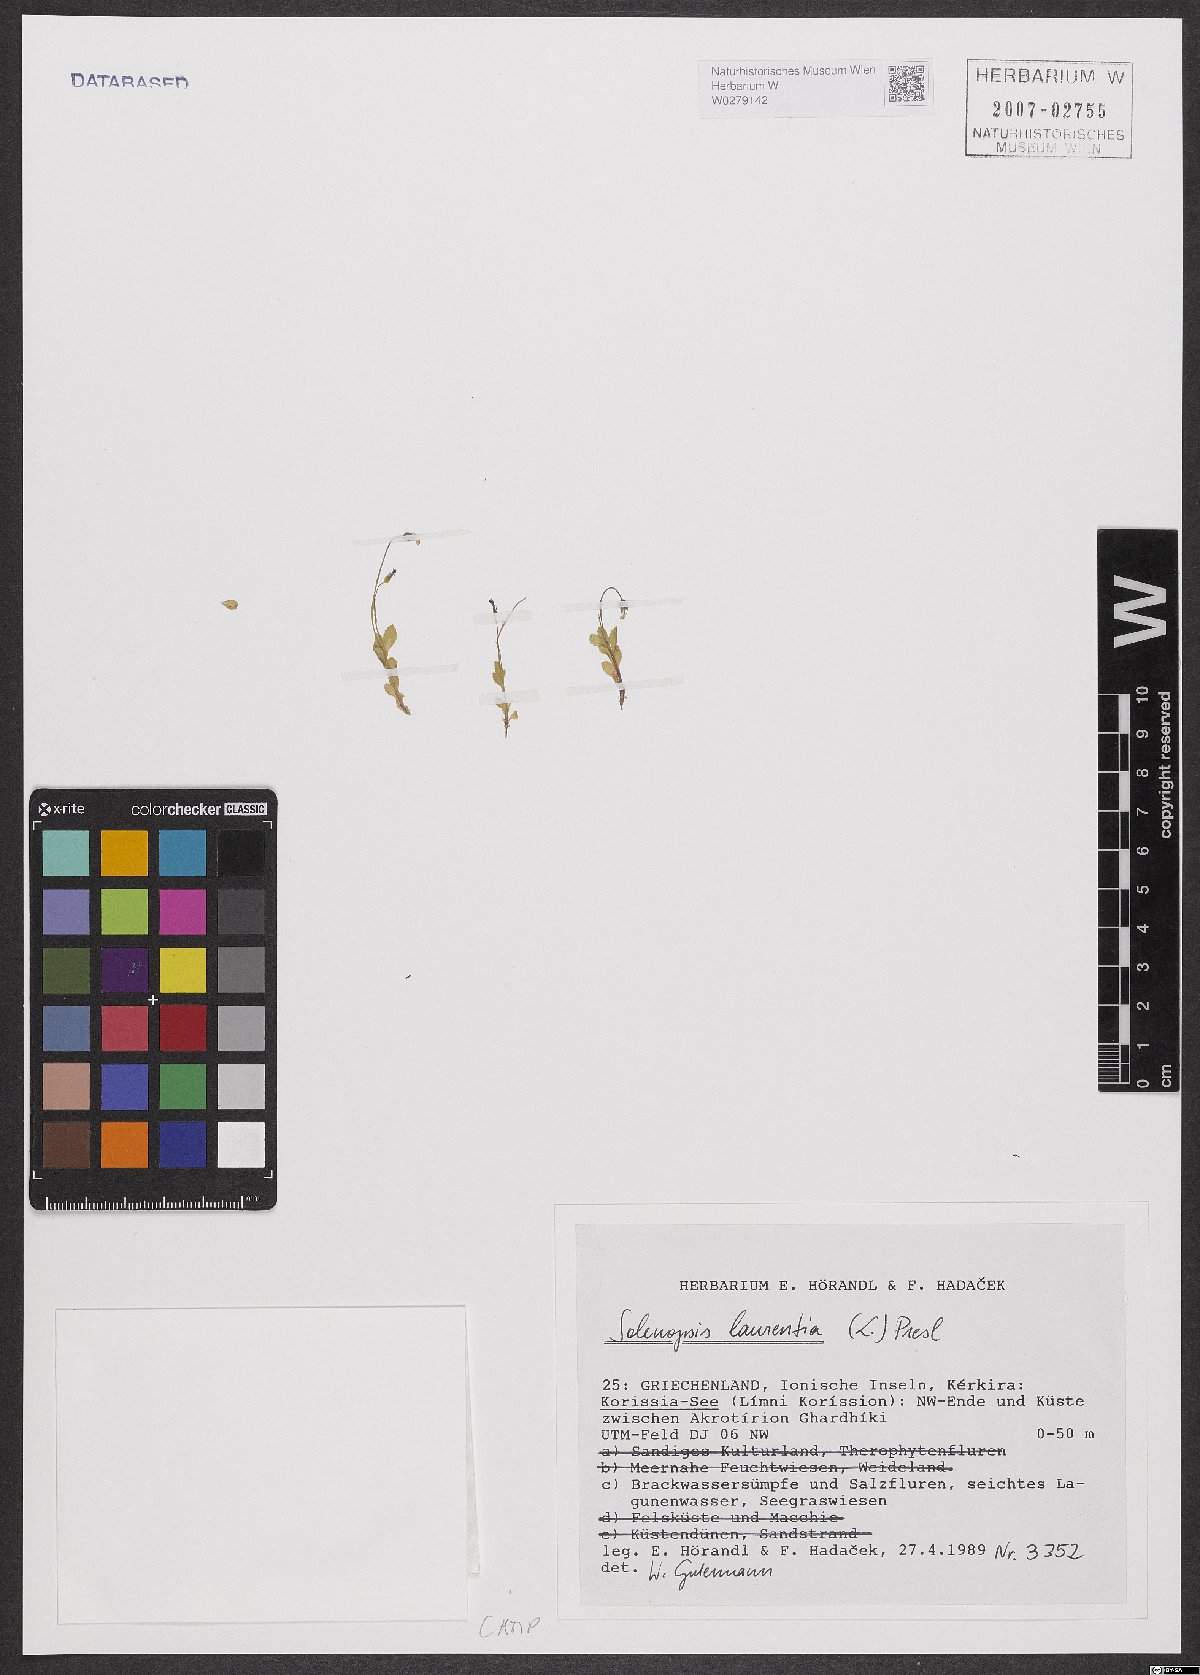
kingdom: Plantae
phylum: Tracheophyta
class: Magnoliopsida
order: Asterales
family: Campanulaceae
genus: Solenopsis
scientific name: Solenopsis laurentia
